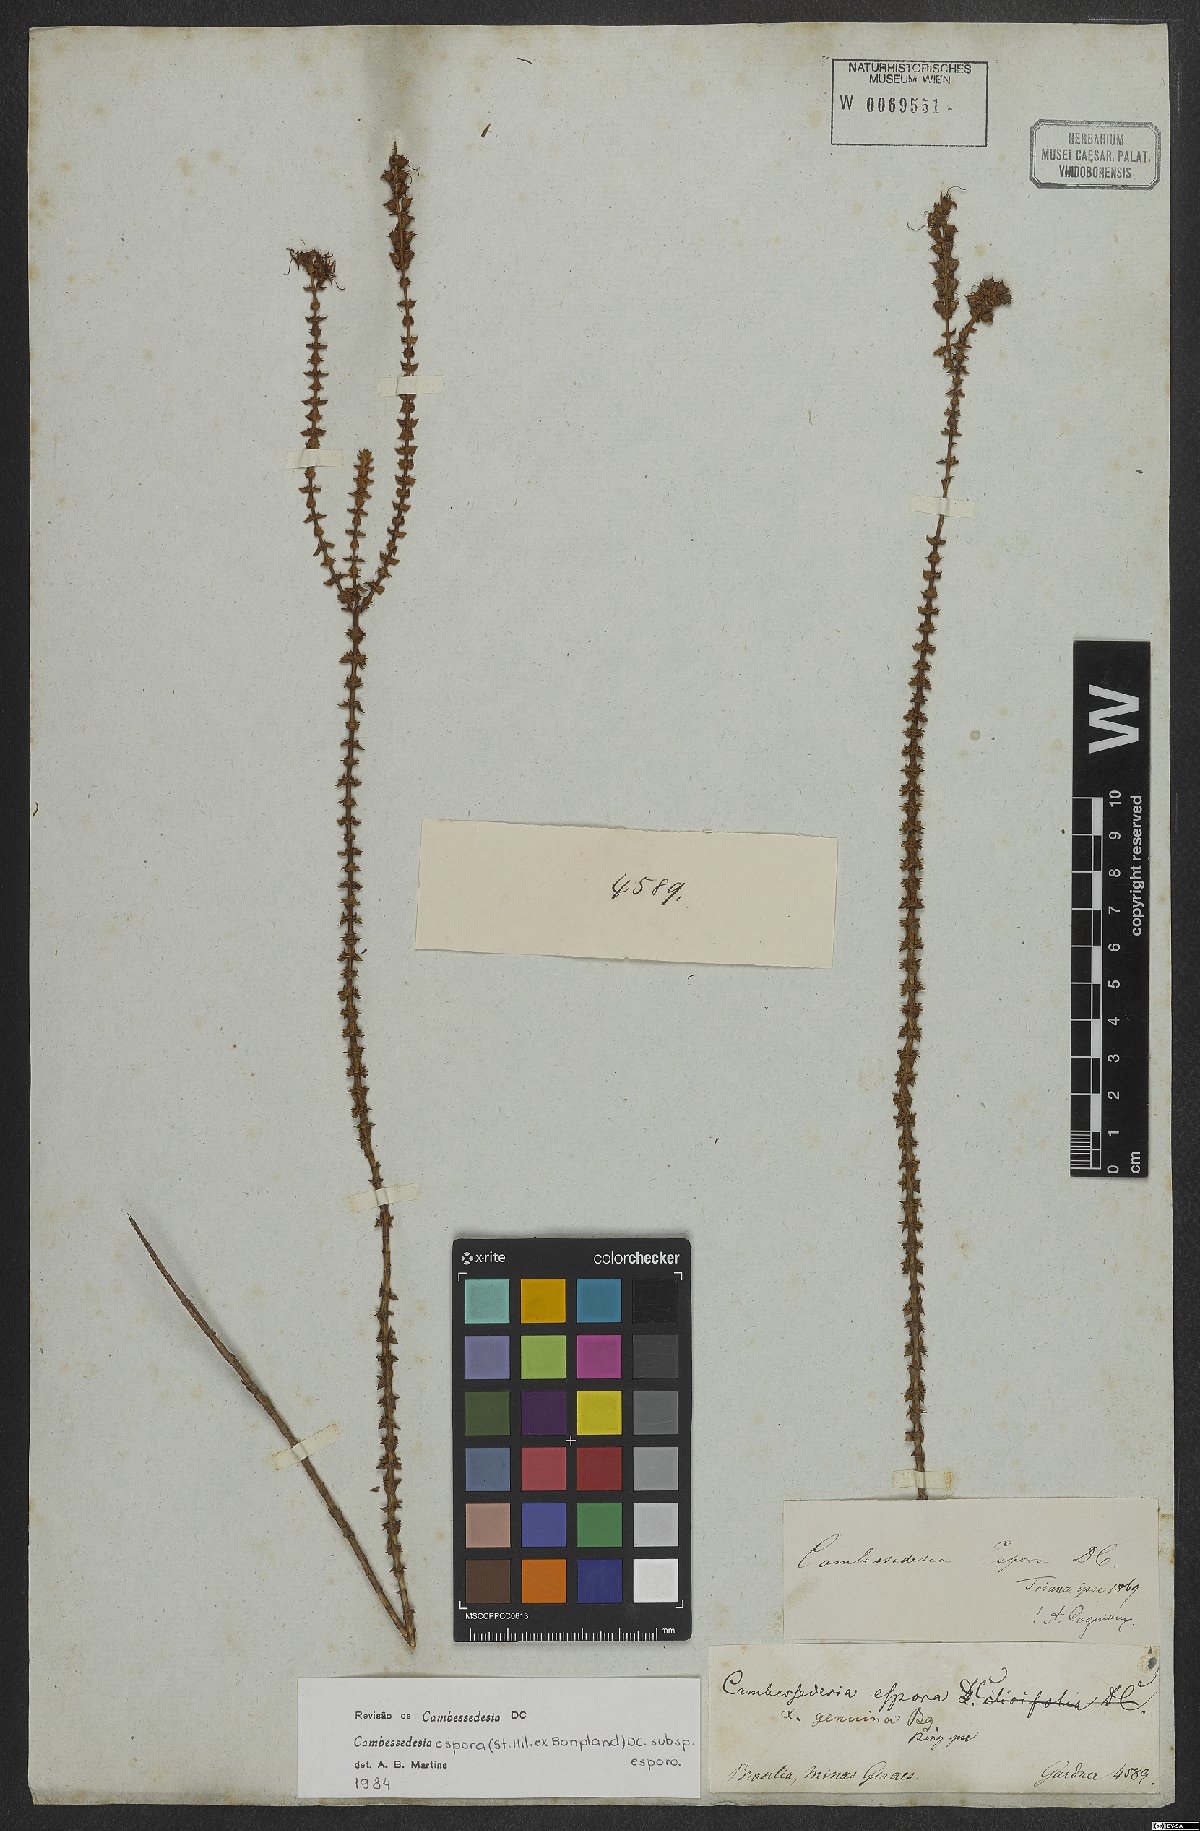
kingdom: Plantae
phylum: Tracheophyta
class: Magnoliopsida
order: Myrtales
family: Melastomataceae
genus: Cambessedesia
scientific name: Cambessedesia espora
